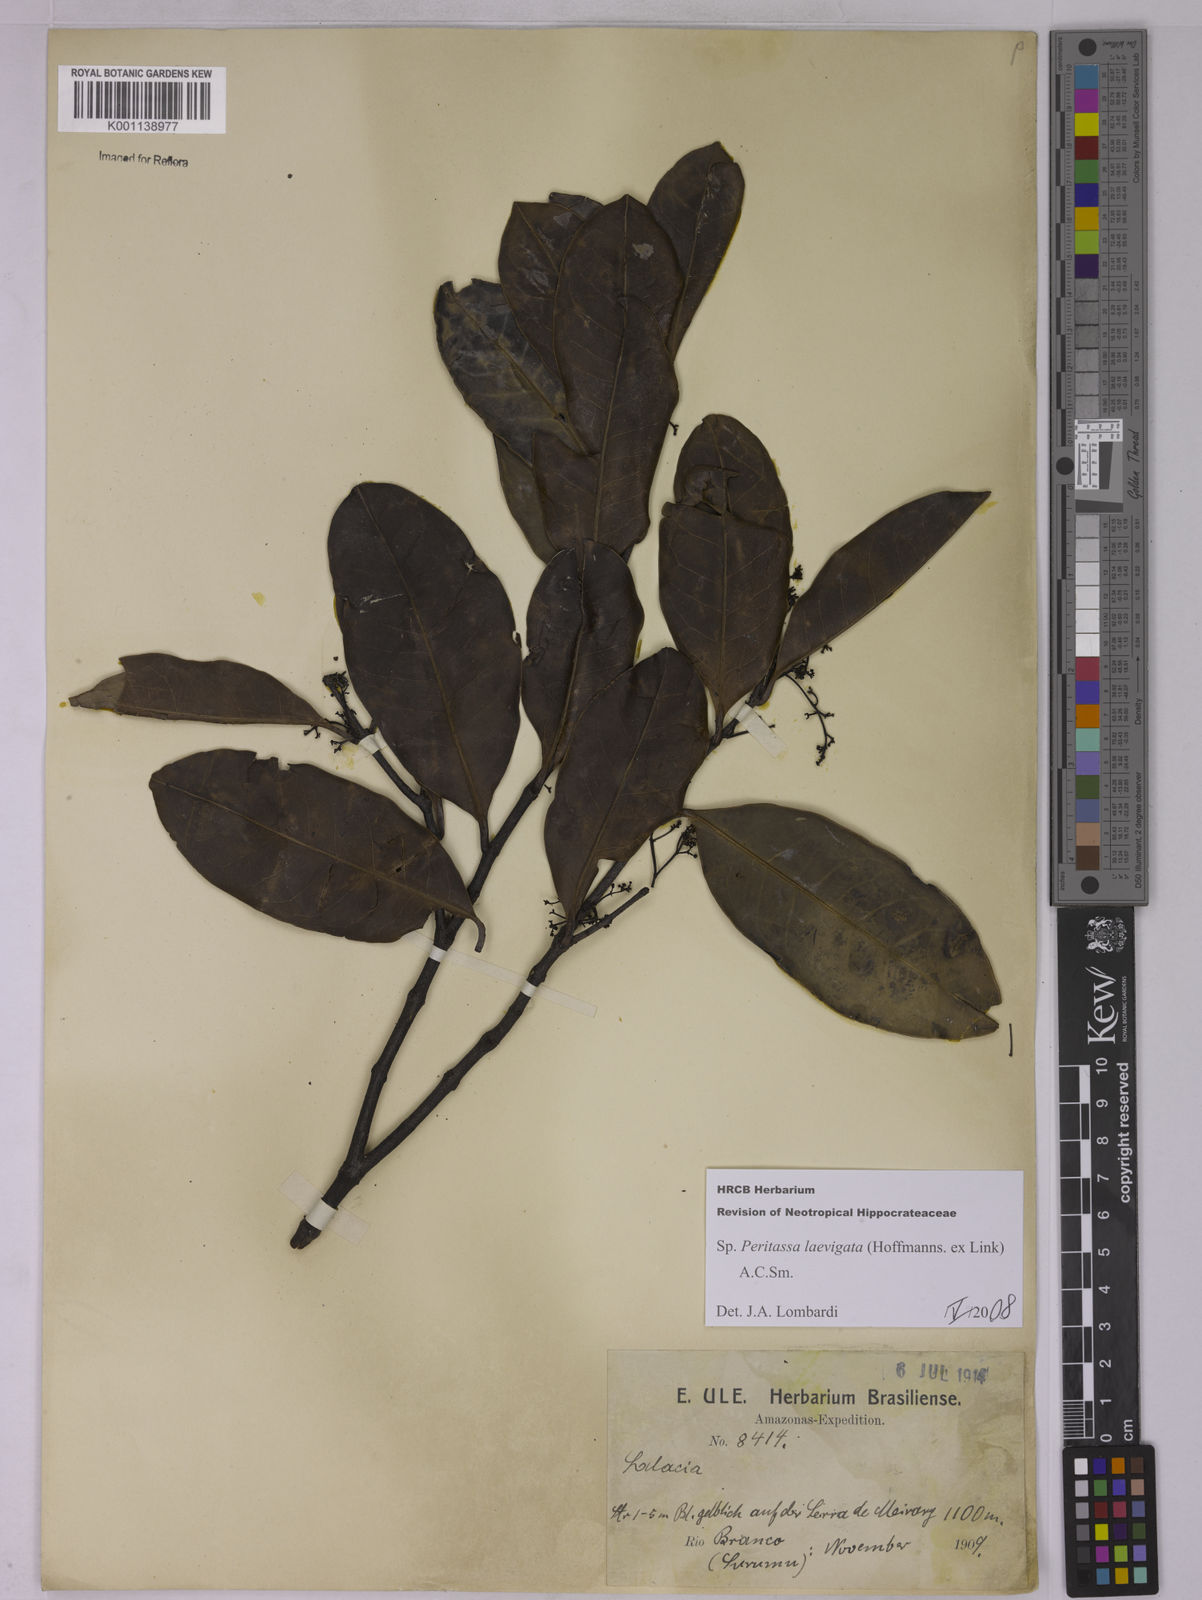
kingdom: Plantae
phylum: Tracheophyta
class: Magnoliopsida
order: Celastrales
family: Celastraceae
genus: Peritassa
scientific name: Peritassa laevigata
